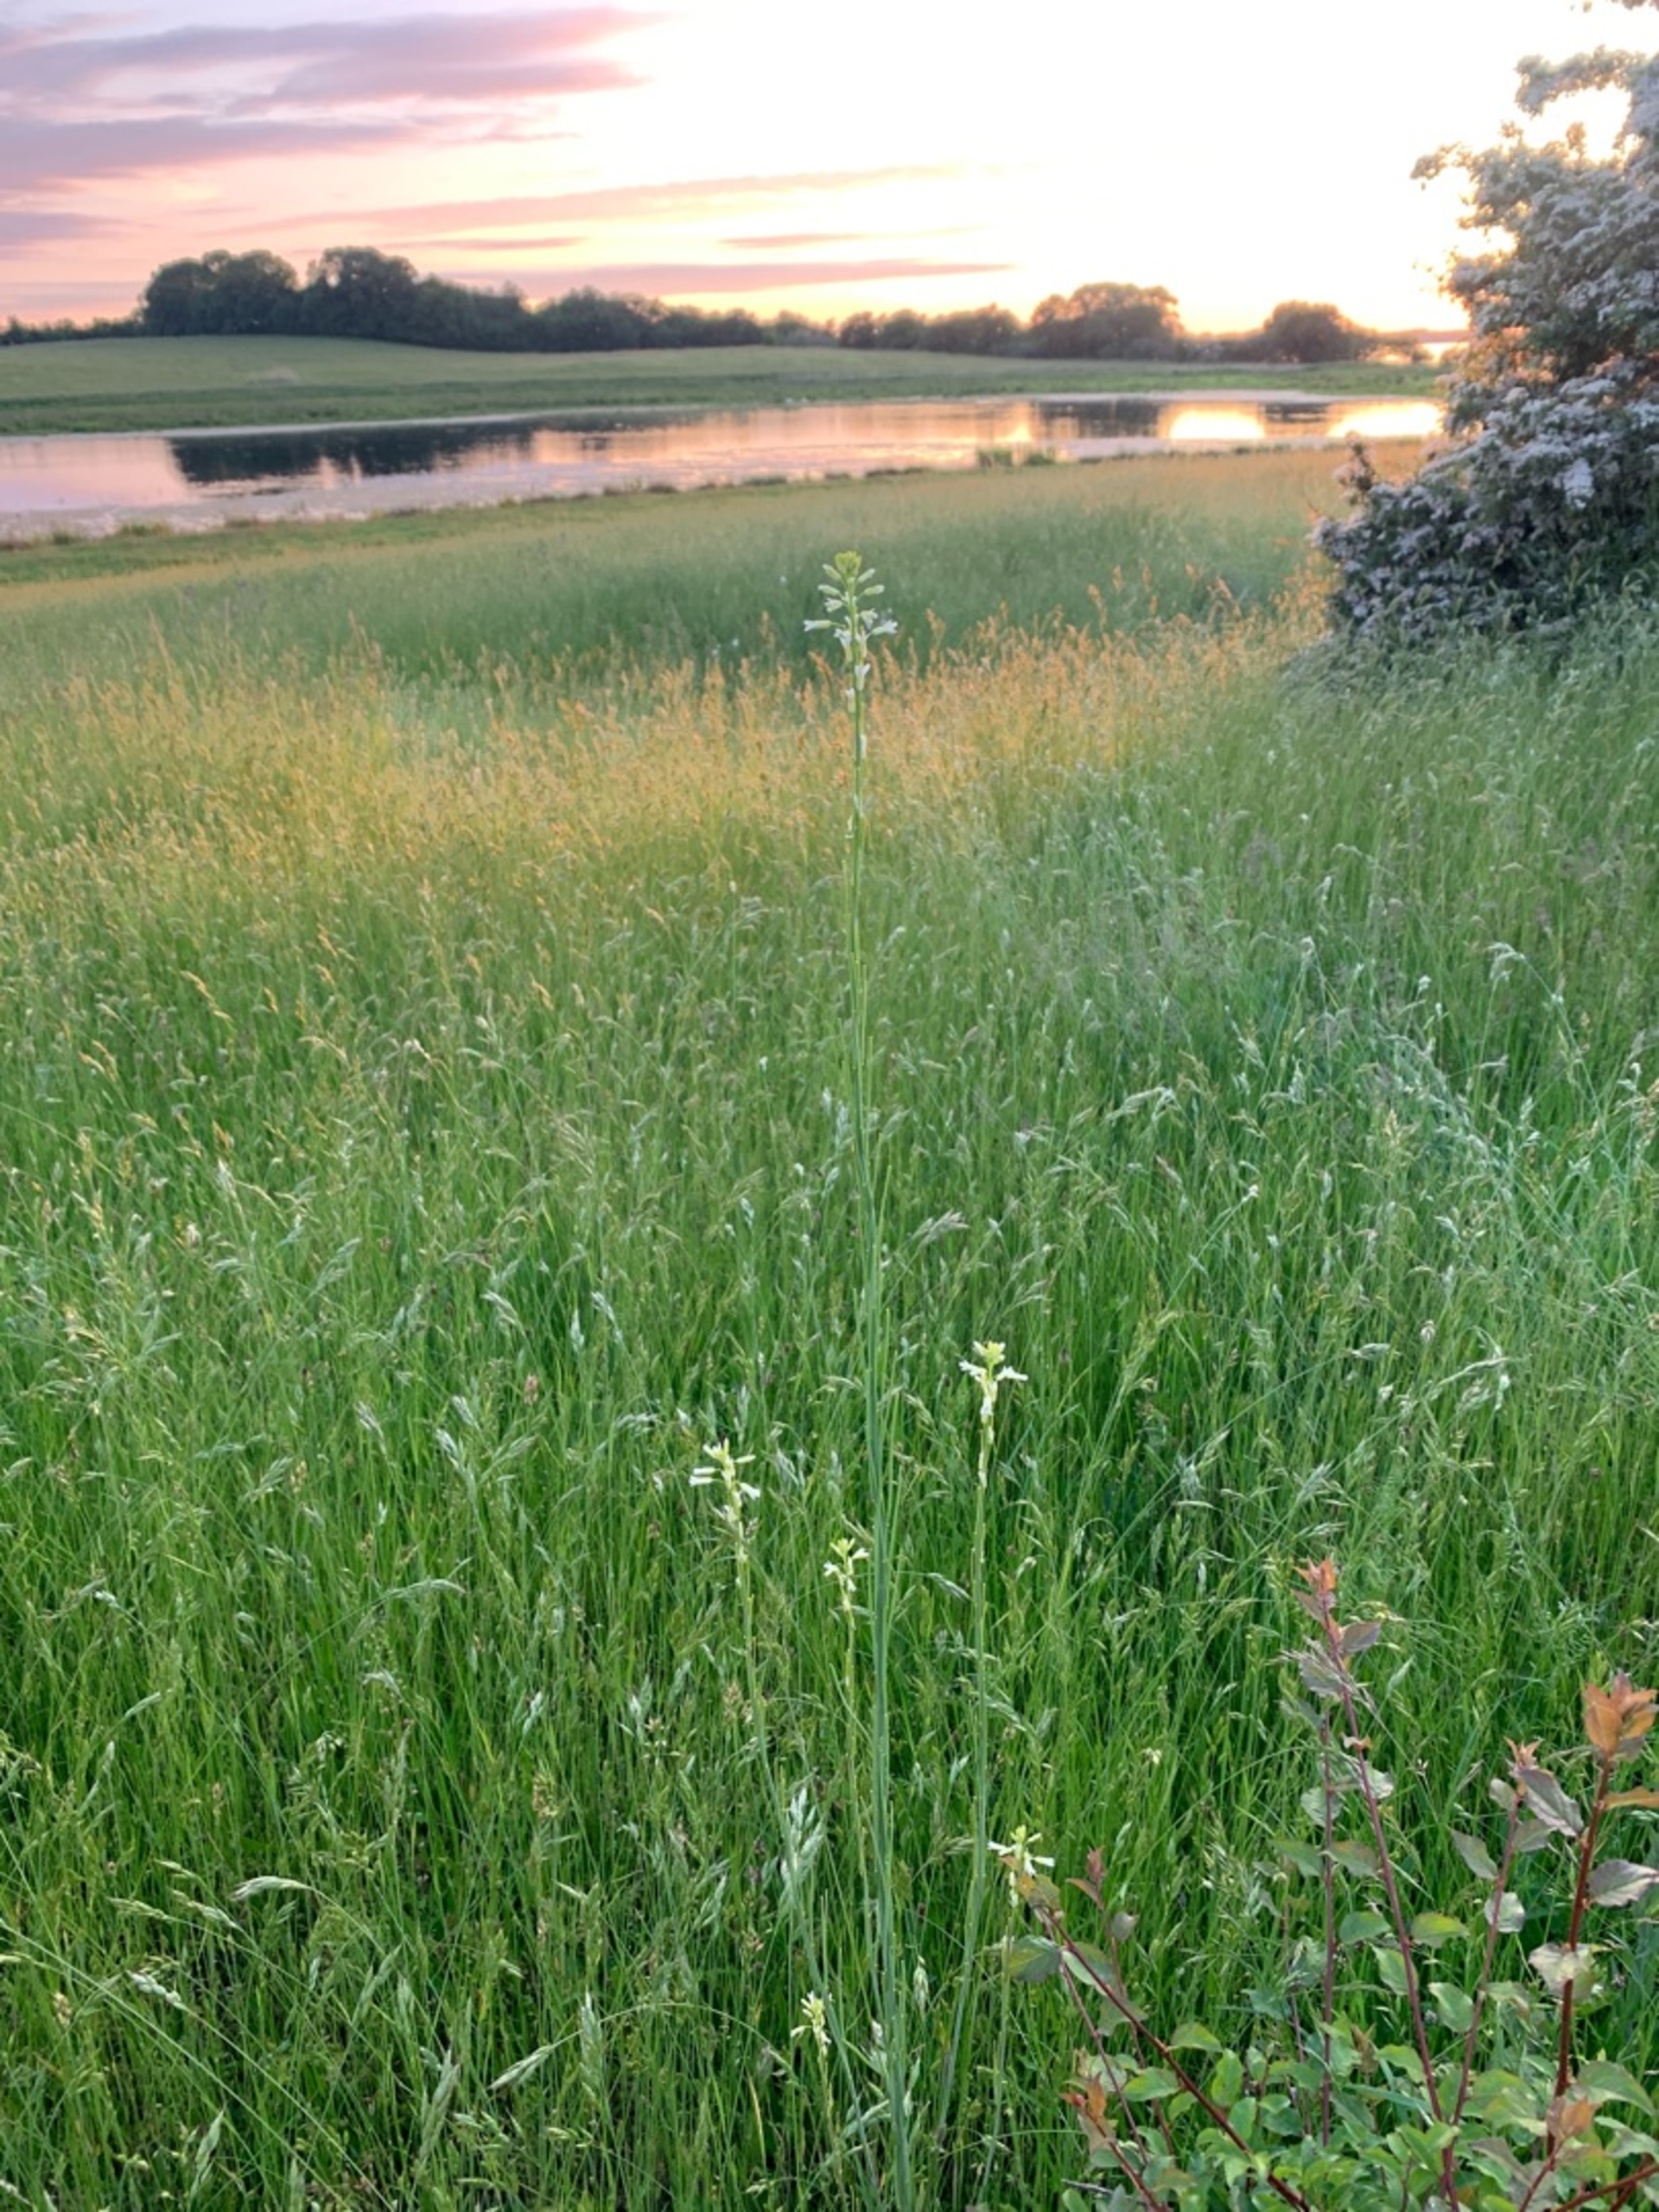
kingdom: Plantae
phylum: Tracheophyta
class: Magnoliopsida
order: Brassicales
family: Brassicaceae
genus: Turritis
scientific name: Turritis glabra
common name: Tårnurt
